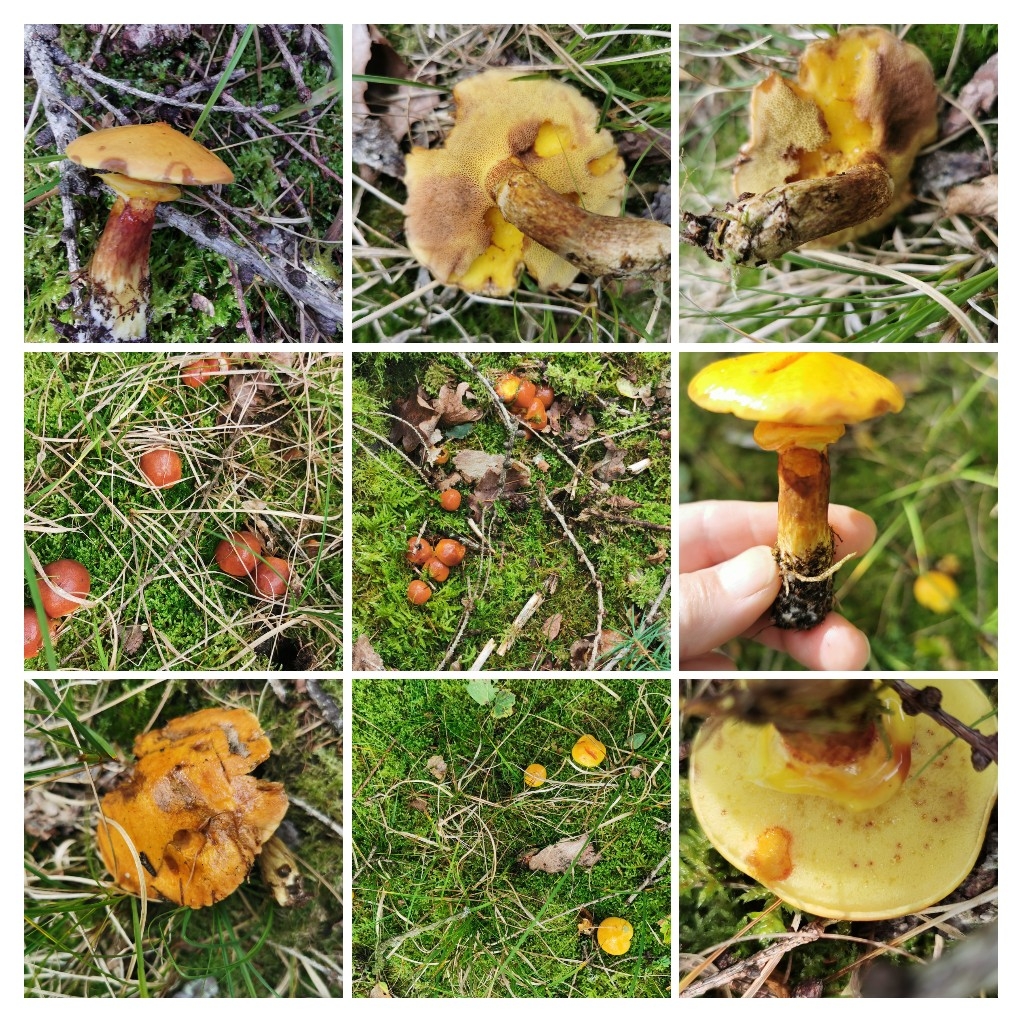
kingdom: Fungi
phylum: Basidiomycota
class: Agaricomycetes
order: Boletales
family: Suillaceae
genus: Suillus
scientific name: Suillus grevillei
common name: lærke-slimrørhat
